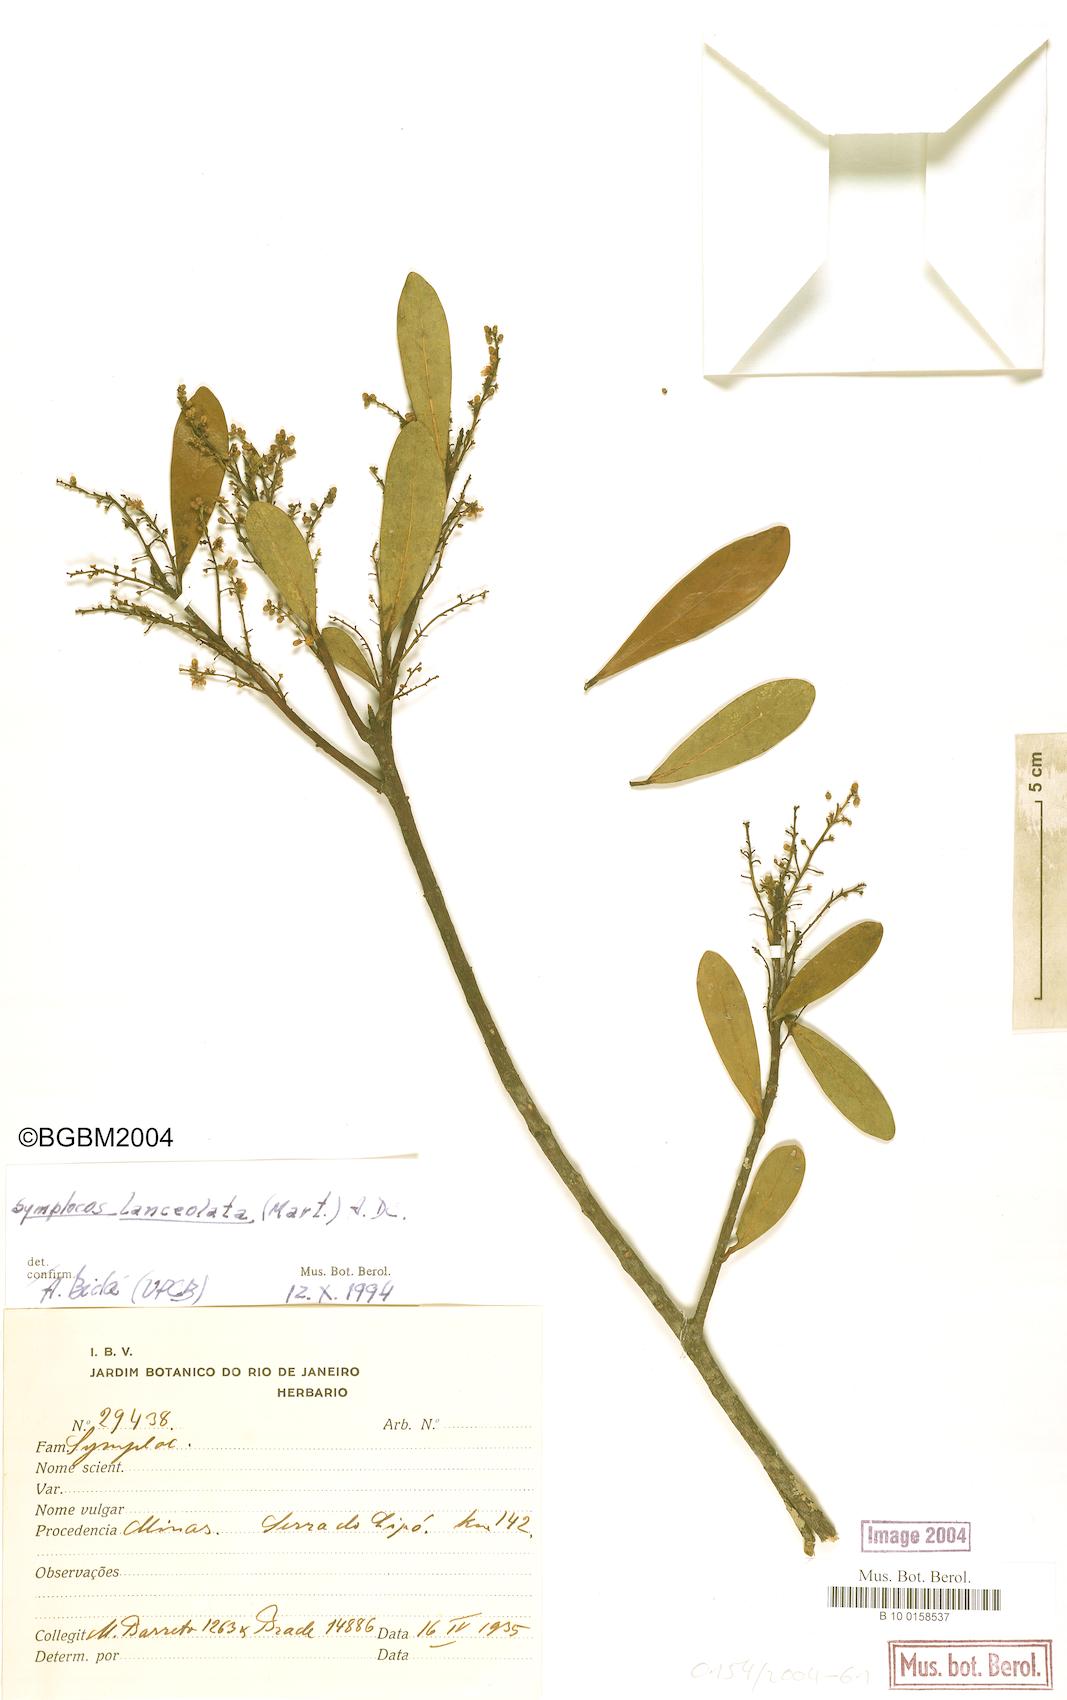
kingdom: Plantae
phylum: Tracheophyta
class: Magnoliopsida
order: Ericales
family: Symplocaceae
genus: Symplocos
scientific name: Symplocos oblongifolia
